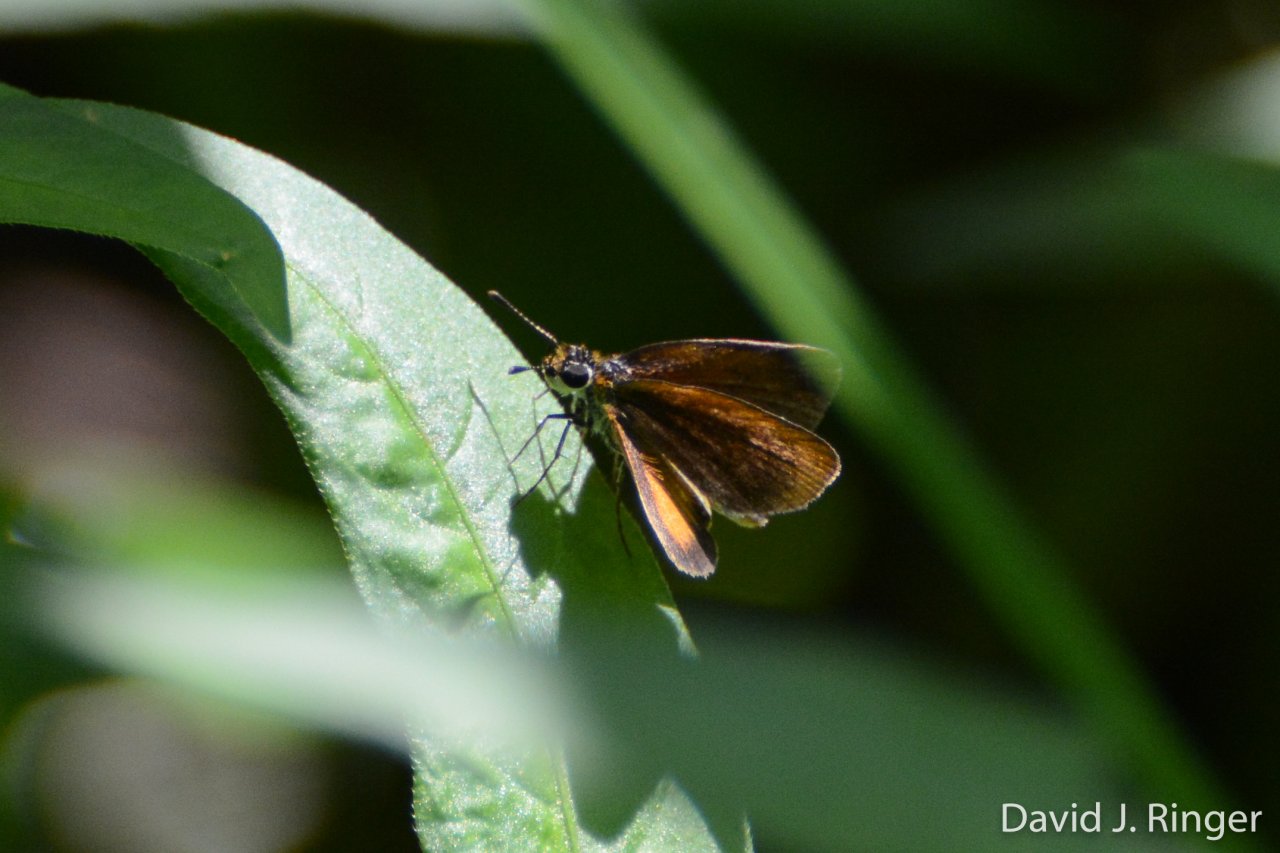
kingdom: Animalia
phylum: Arthropoda
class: Insecta
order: Lepidoptera
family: Hesperiidae
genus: Ancyloxypha
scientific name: Ancyloxypha numitor
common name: Least Skipper
